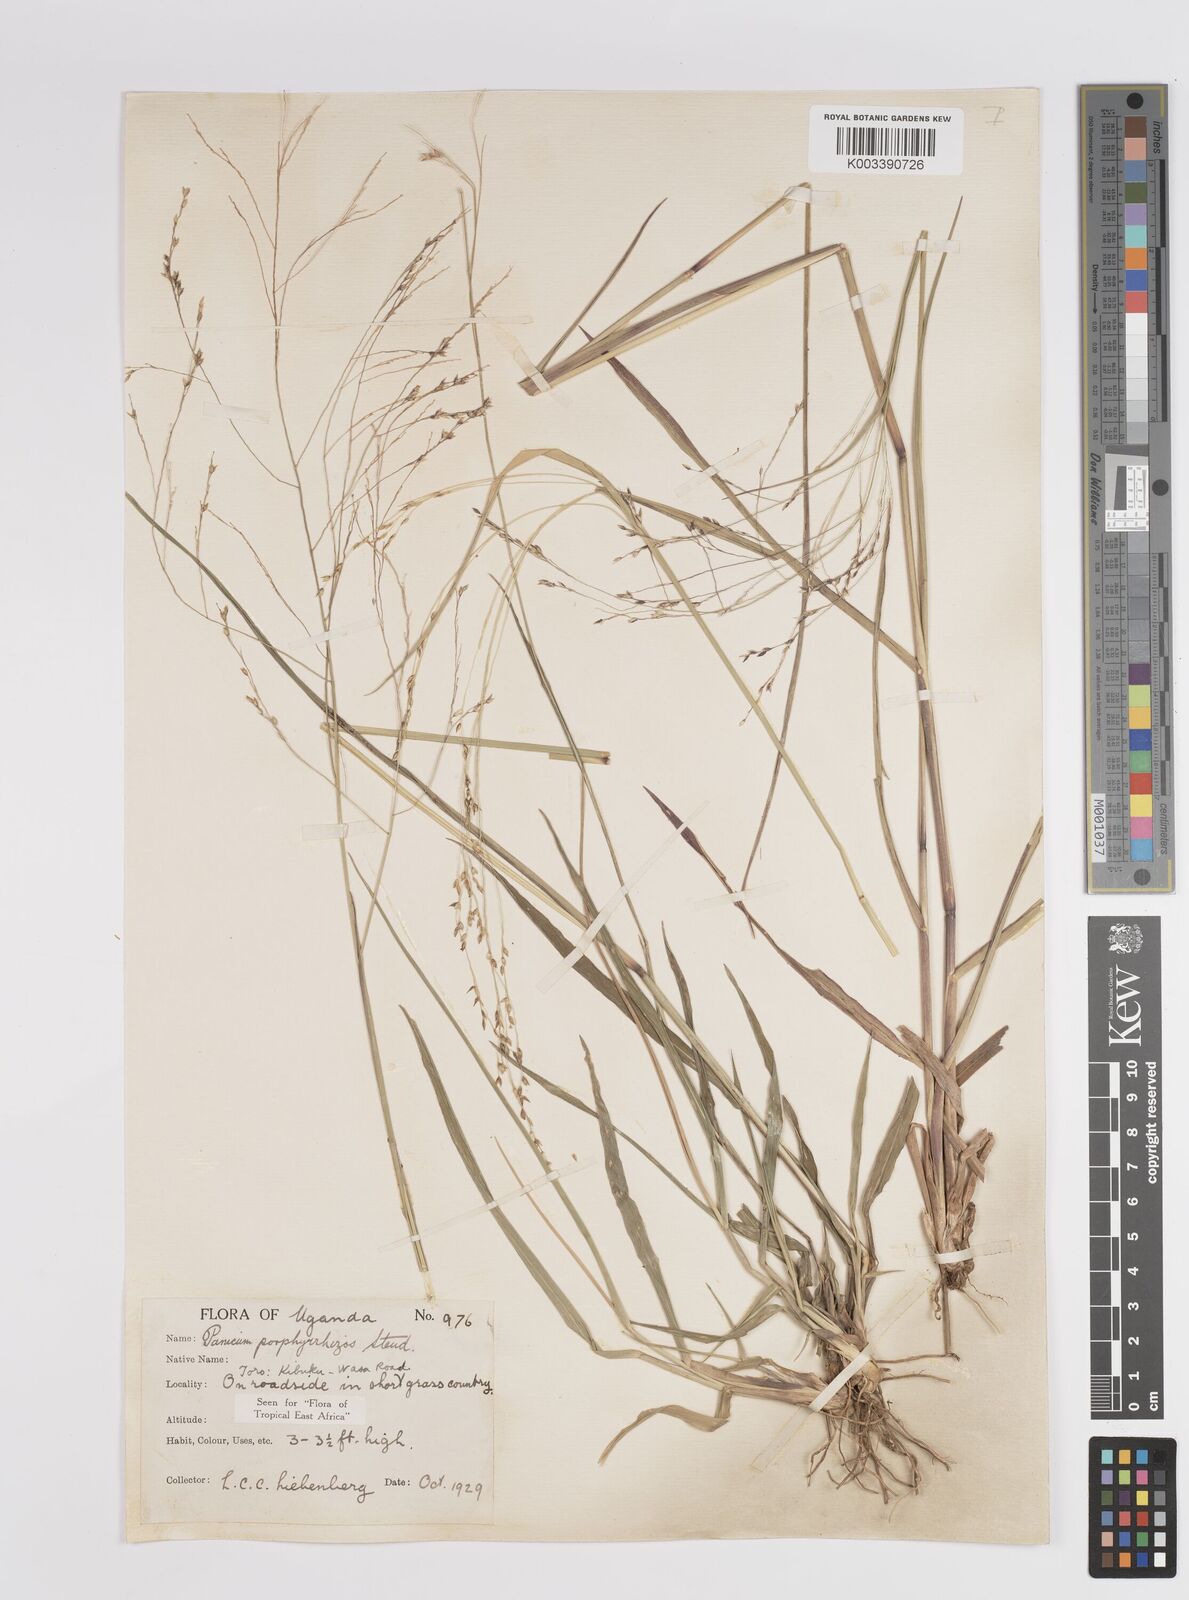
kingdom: Plantae
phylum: Tracheophyta
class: Liliopsida
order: Poales
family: Poaceae
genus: Panicum
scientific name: Panicum porphyrrhizos
